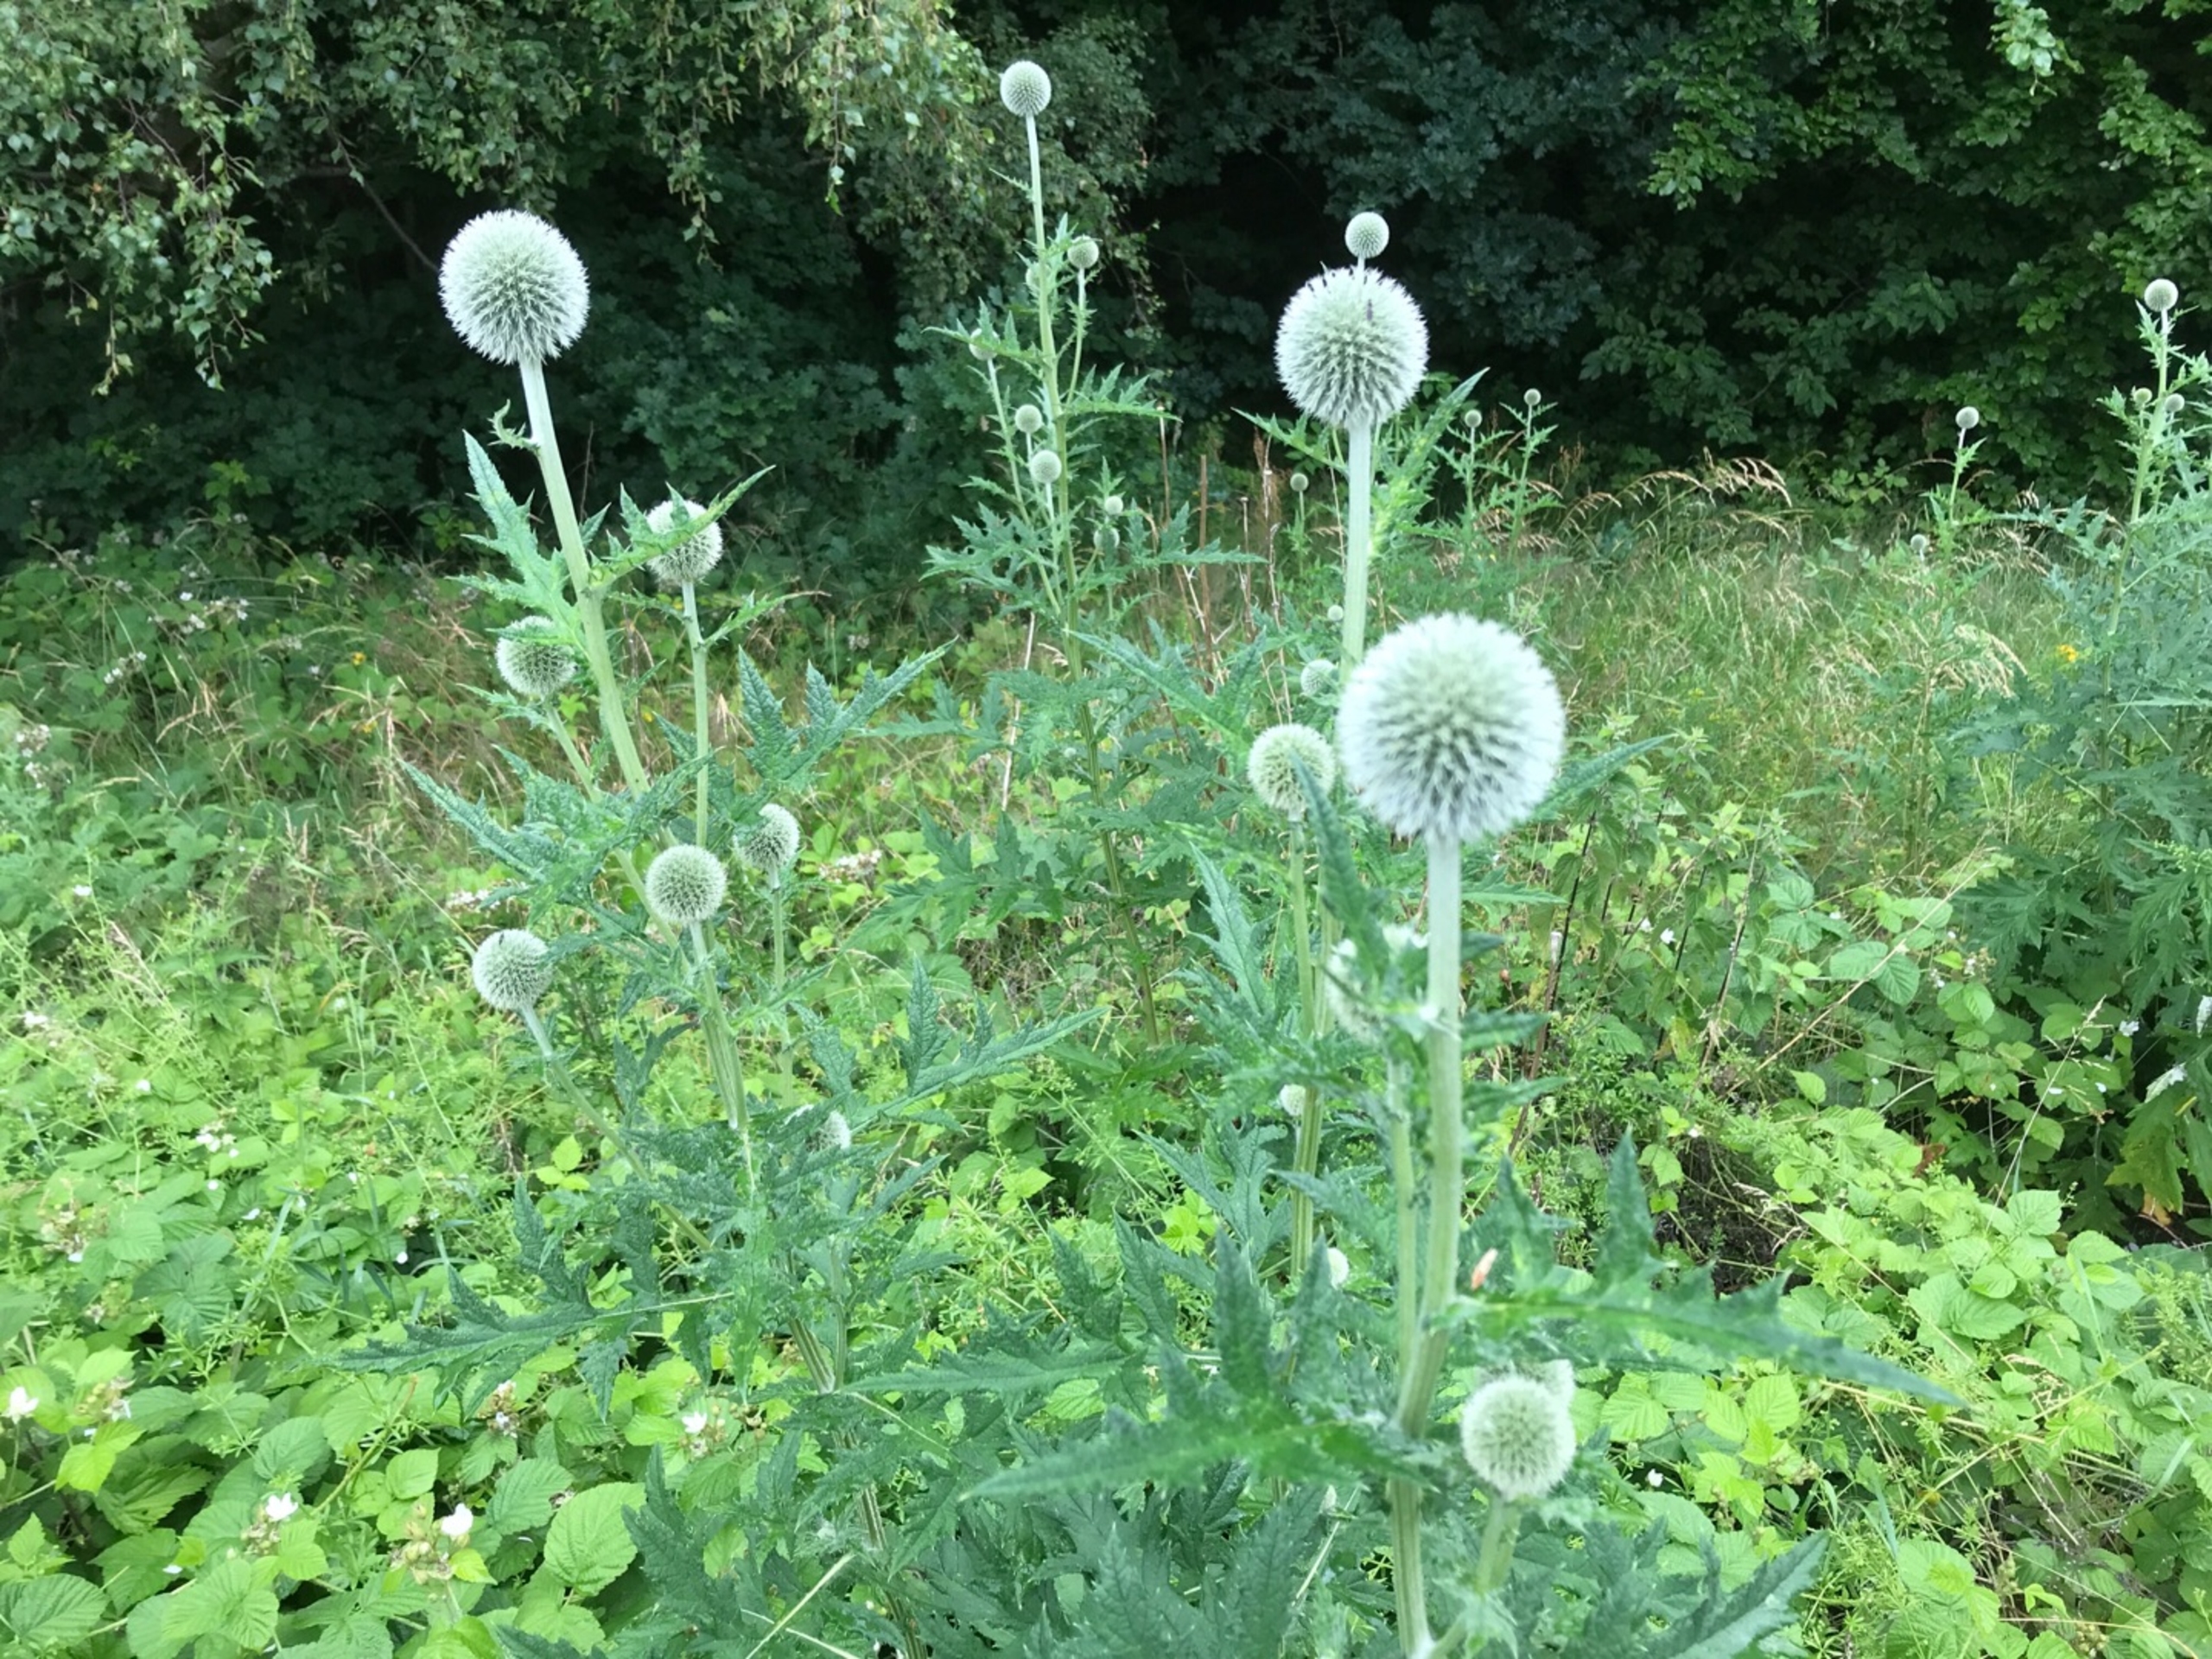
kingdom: Plantae
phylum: Tracheophyta
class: Magnoliopsida
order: Asterales
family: Asteraceae
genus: Echinops
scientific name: Echinops exaltatus
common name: Høj tidselkugle
